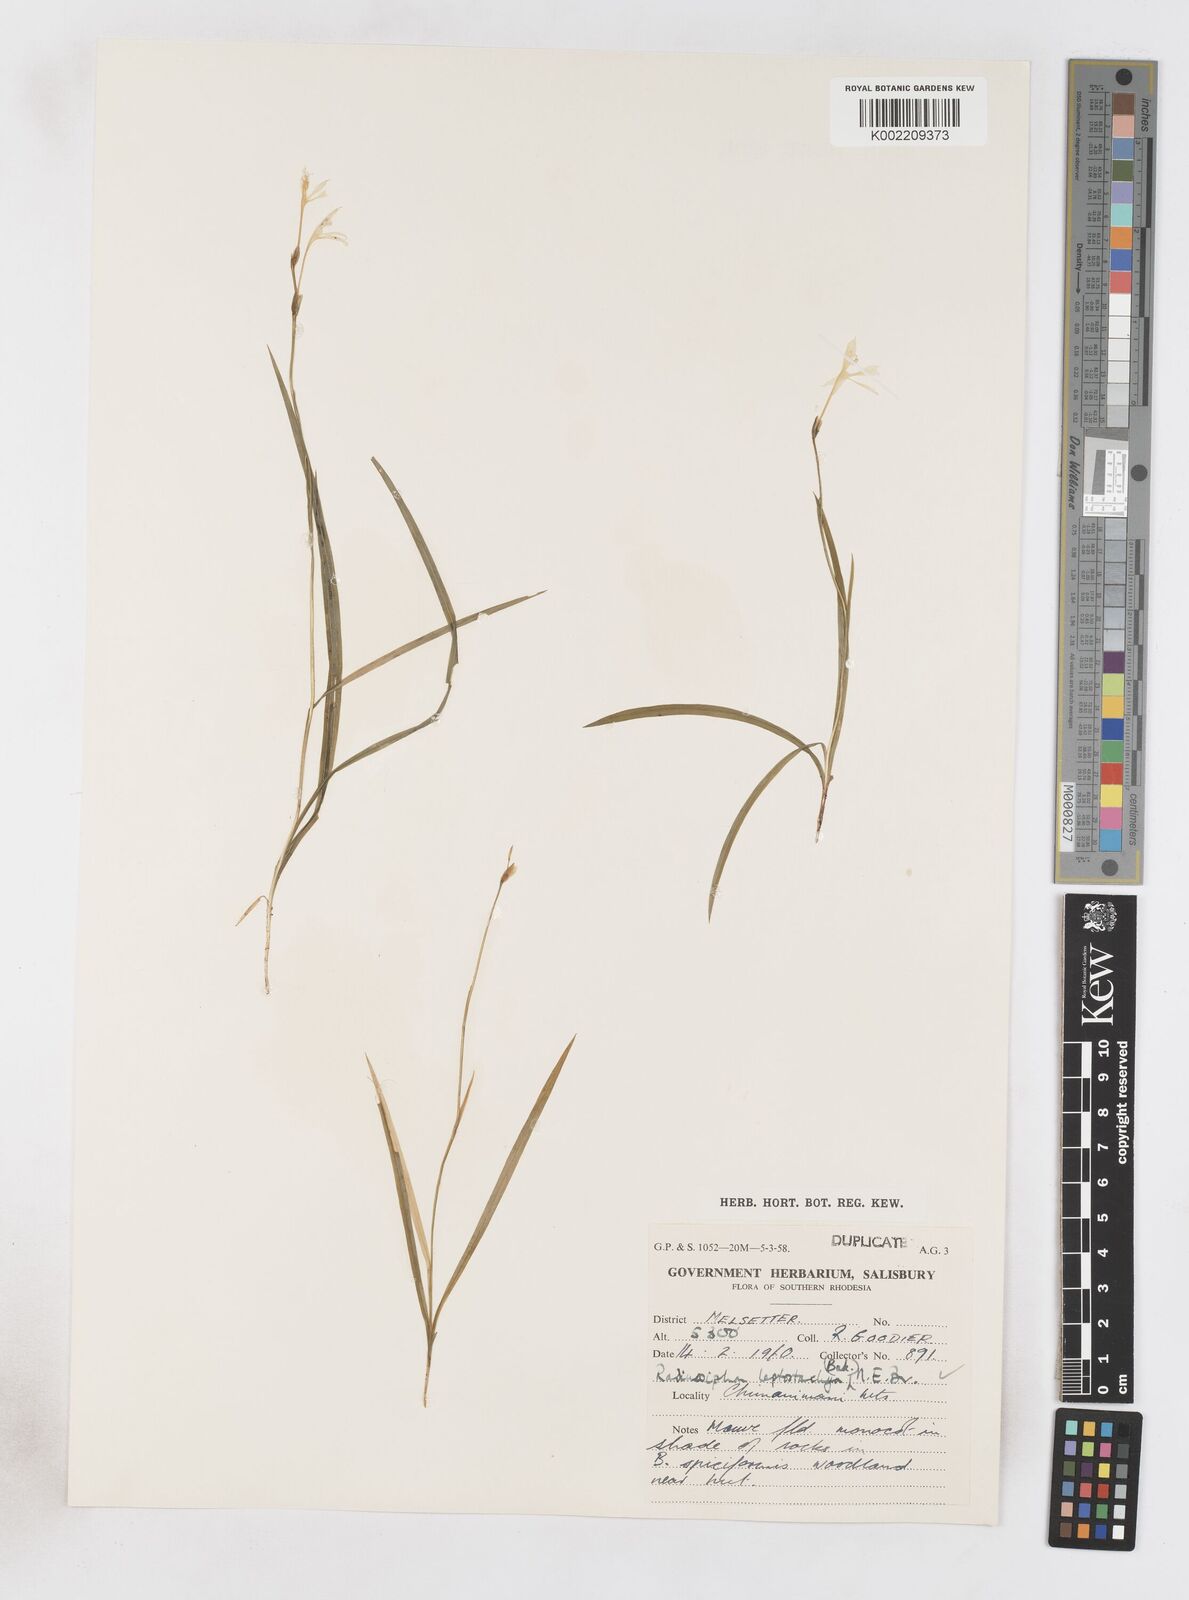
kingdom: Plantae
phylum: Tracheophyta
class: Liliopsida
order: Asparagales
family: Iridaceae
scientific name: Iridaceae
